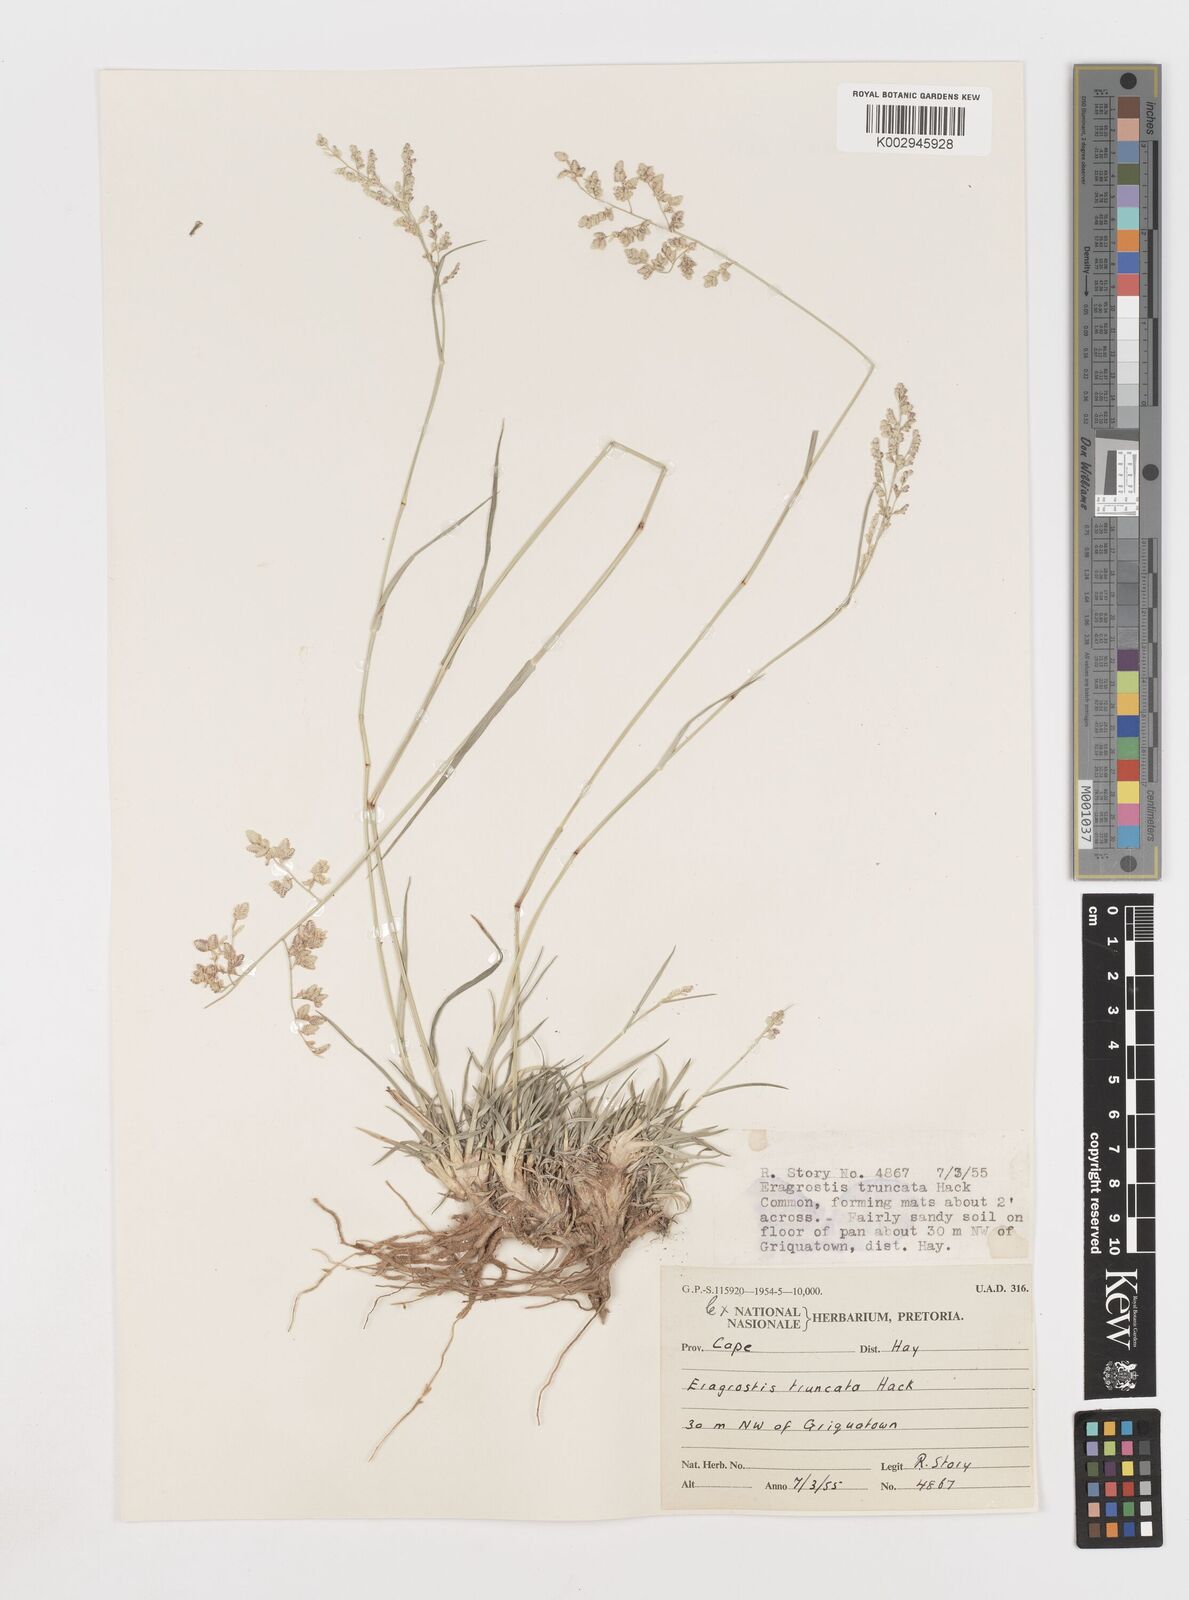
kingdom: Plantae
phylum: Tracheophyta
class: Liliopsida
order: Poales
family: Poaceae
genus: Eragrostis
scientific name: Eragrostis truncata
